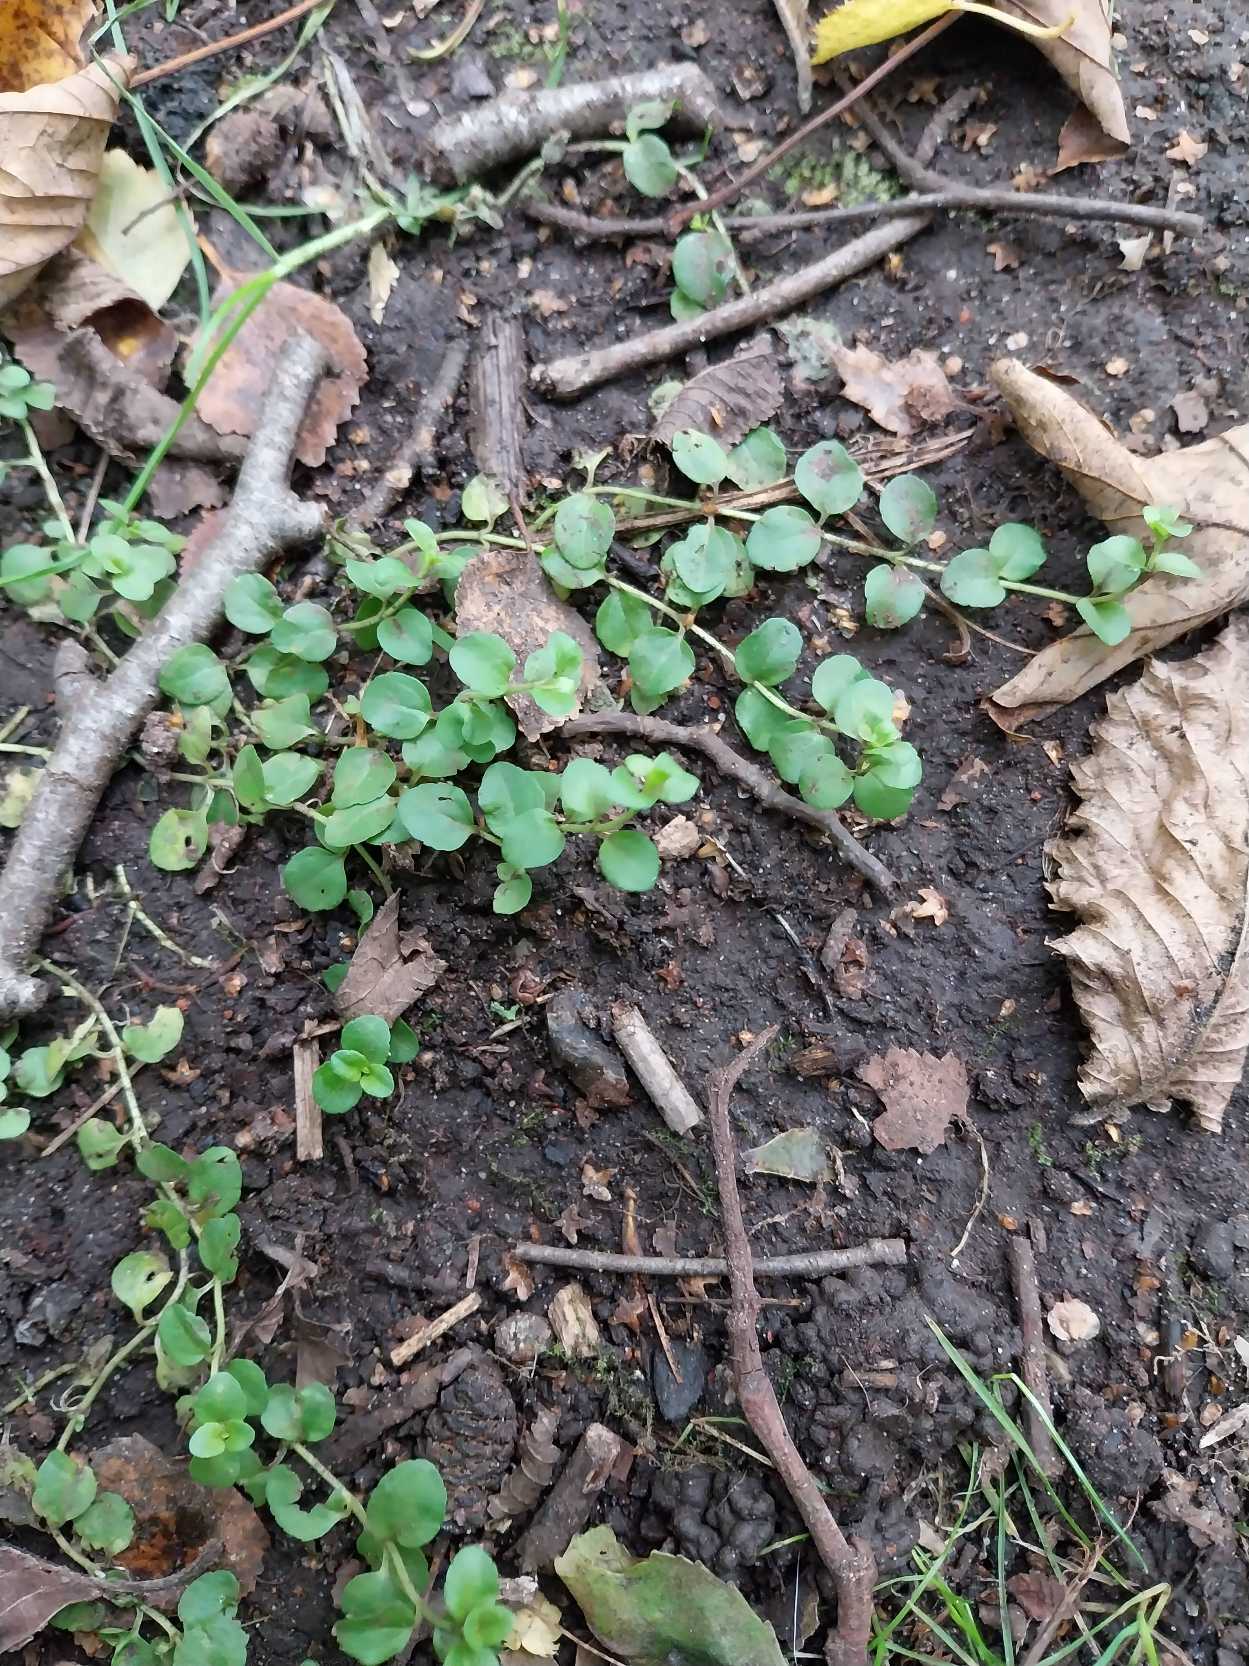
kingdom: Plantae
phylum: Tracheophyta
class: Magnoliopsida
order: Lamiales
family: Plantaginaceae
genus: Veronica
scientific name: Veronica serpyllifolia
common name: Glat ærenpris
